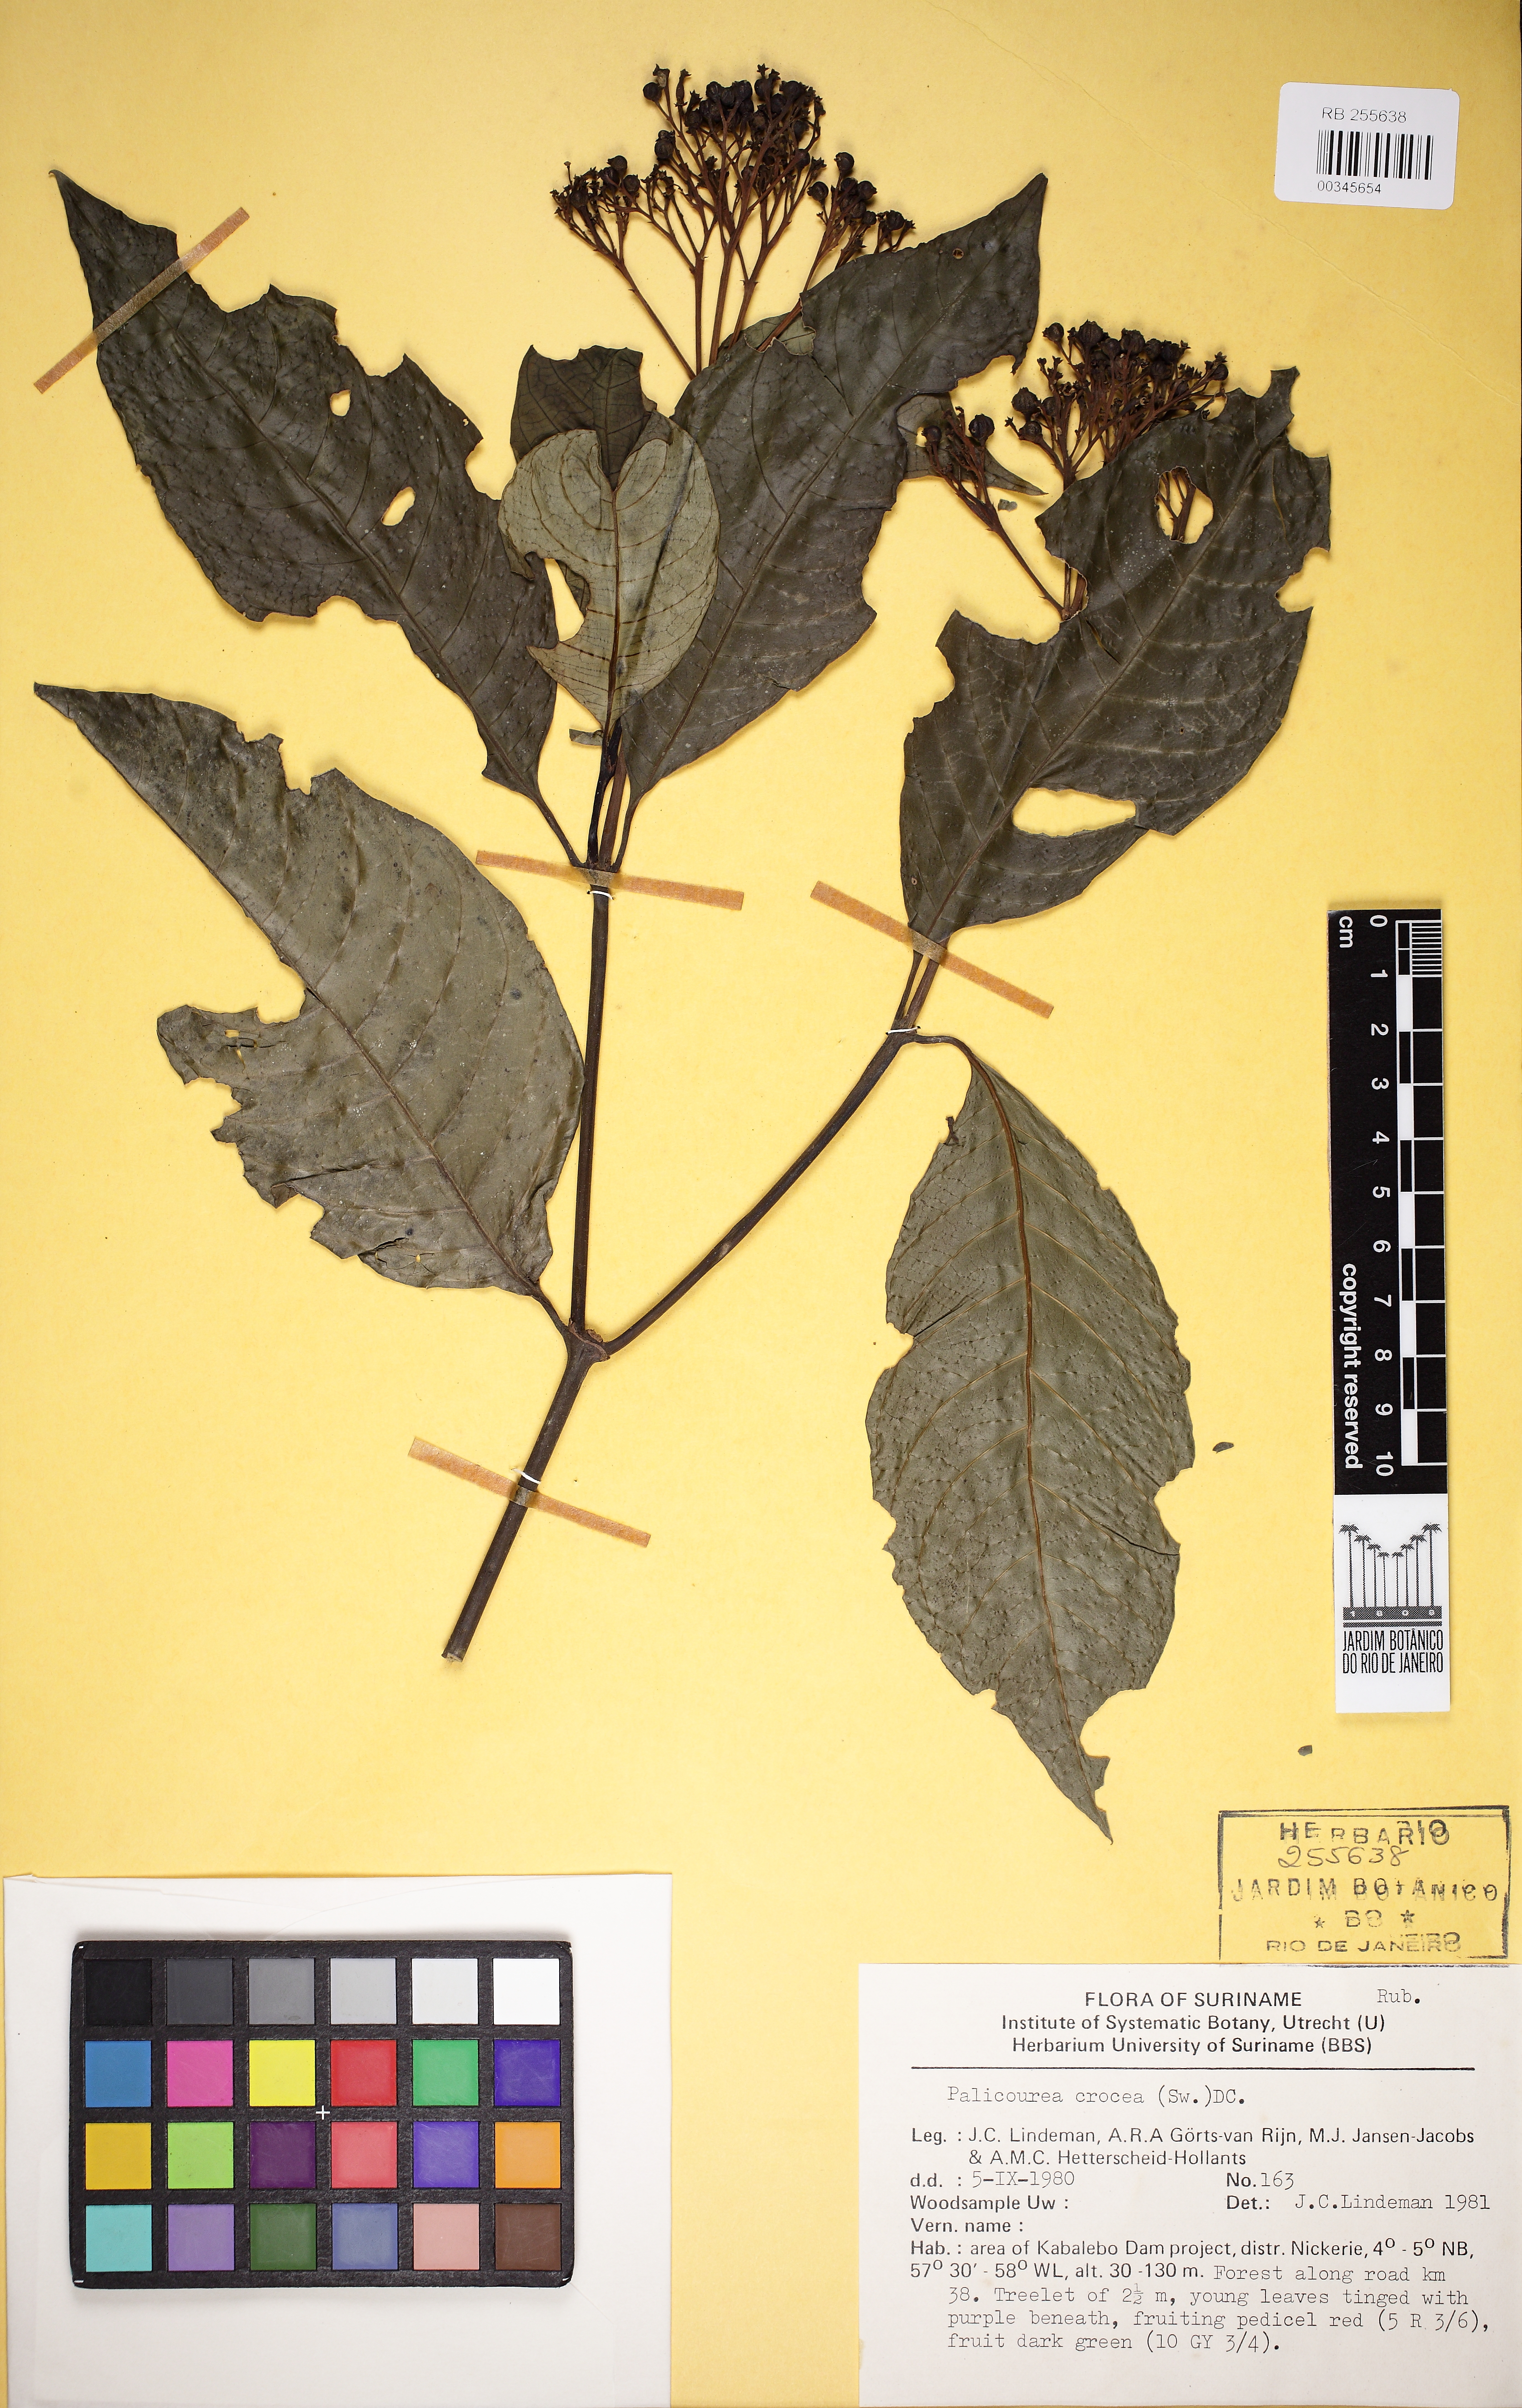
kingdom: Plantae
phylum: Tracheophyta
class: Magnoliopsida
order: Gentianales
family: Rubiaceae
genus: Palicourea
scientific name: Palicourea crocea
